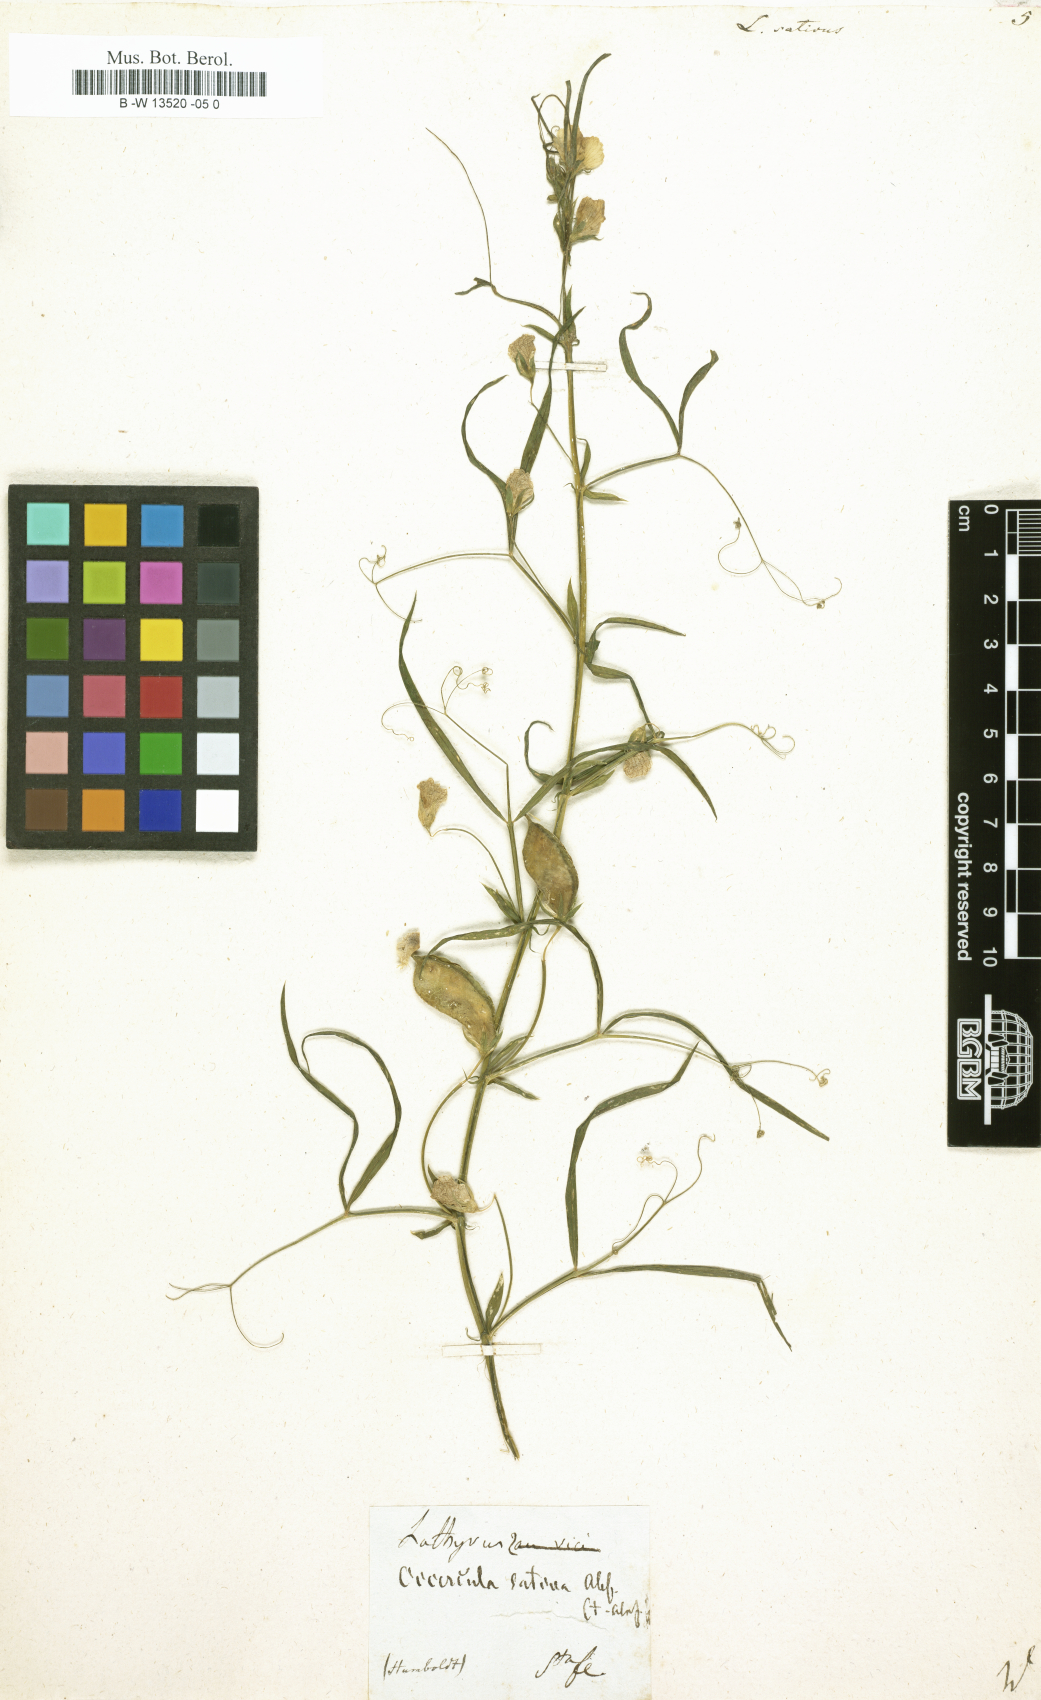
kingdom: Plantae
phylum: Tracheophyta
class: Magnoliopsida
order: Fabales
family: Fabaceae
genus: Lathyrus
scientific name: Lathyrus sativus
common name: Indian pea
